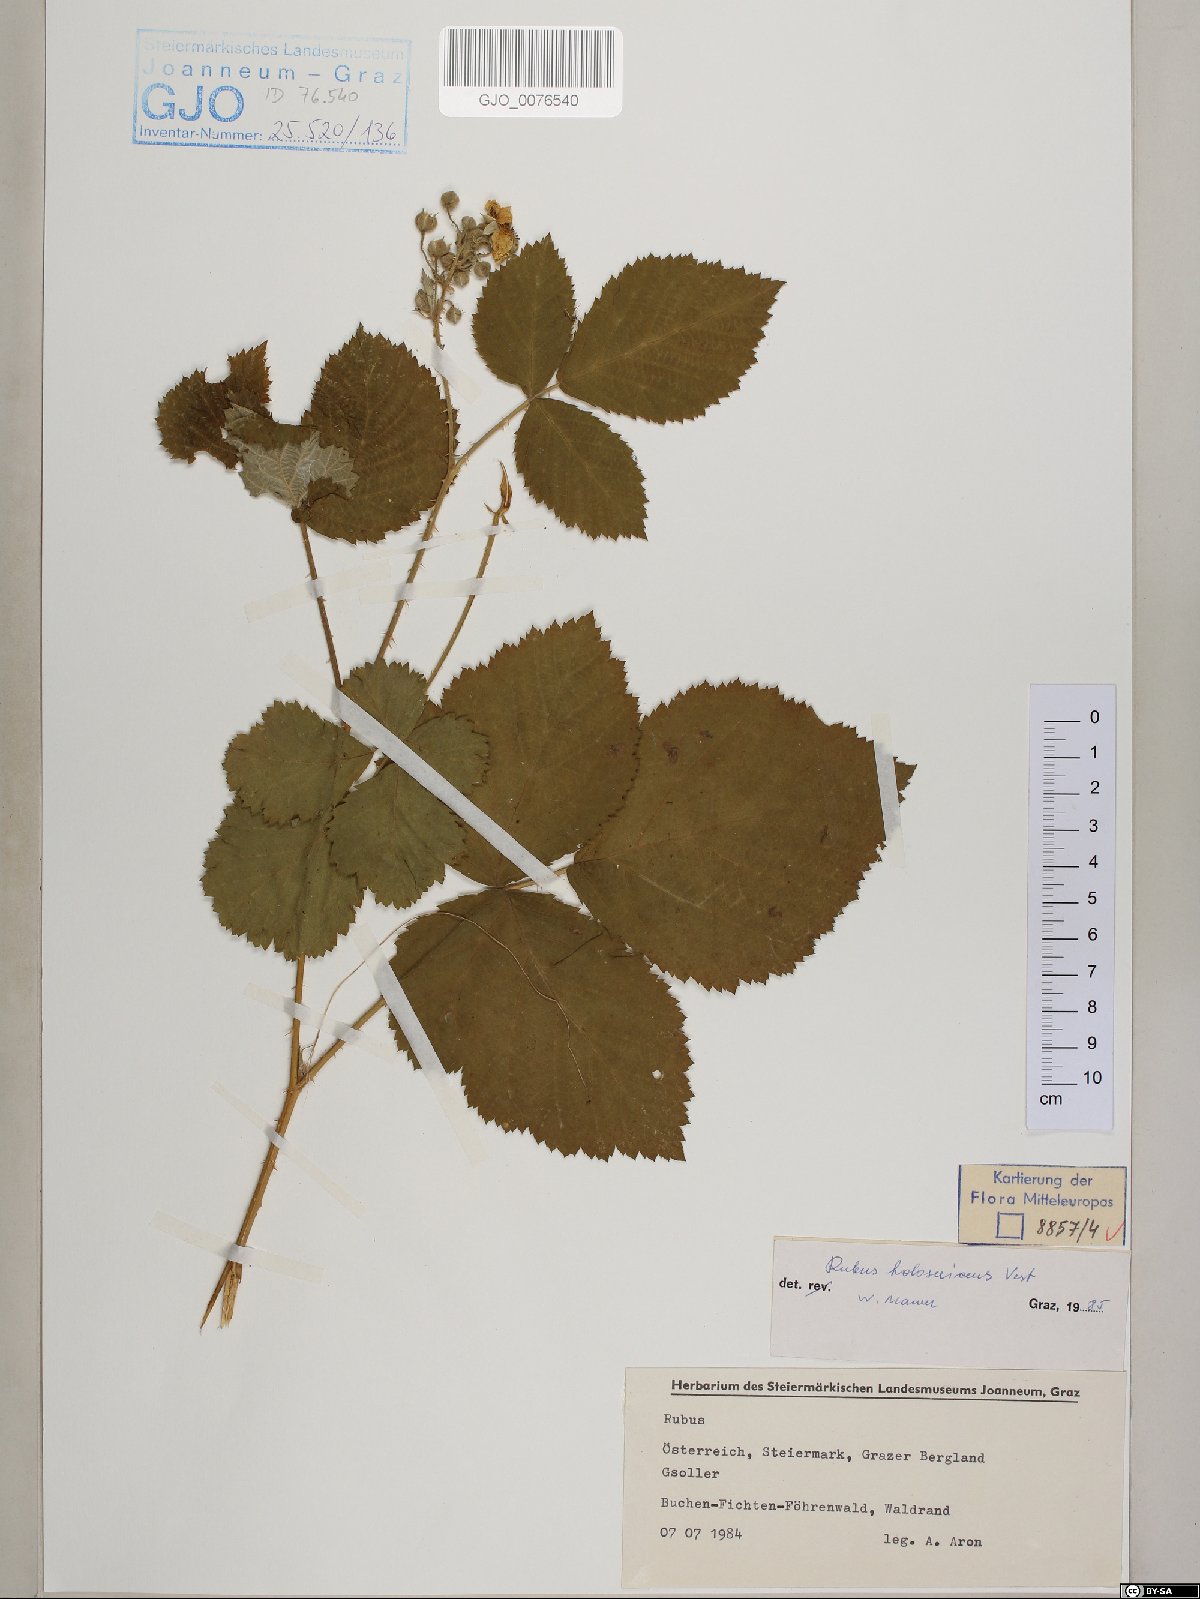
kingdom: Plantae
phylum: Tracheophyta
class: Magnoliopsida
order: Rosales
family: Rosaceae
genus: Rubus
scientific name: Rubus holosericeus
